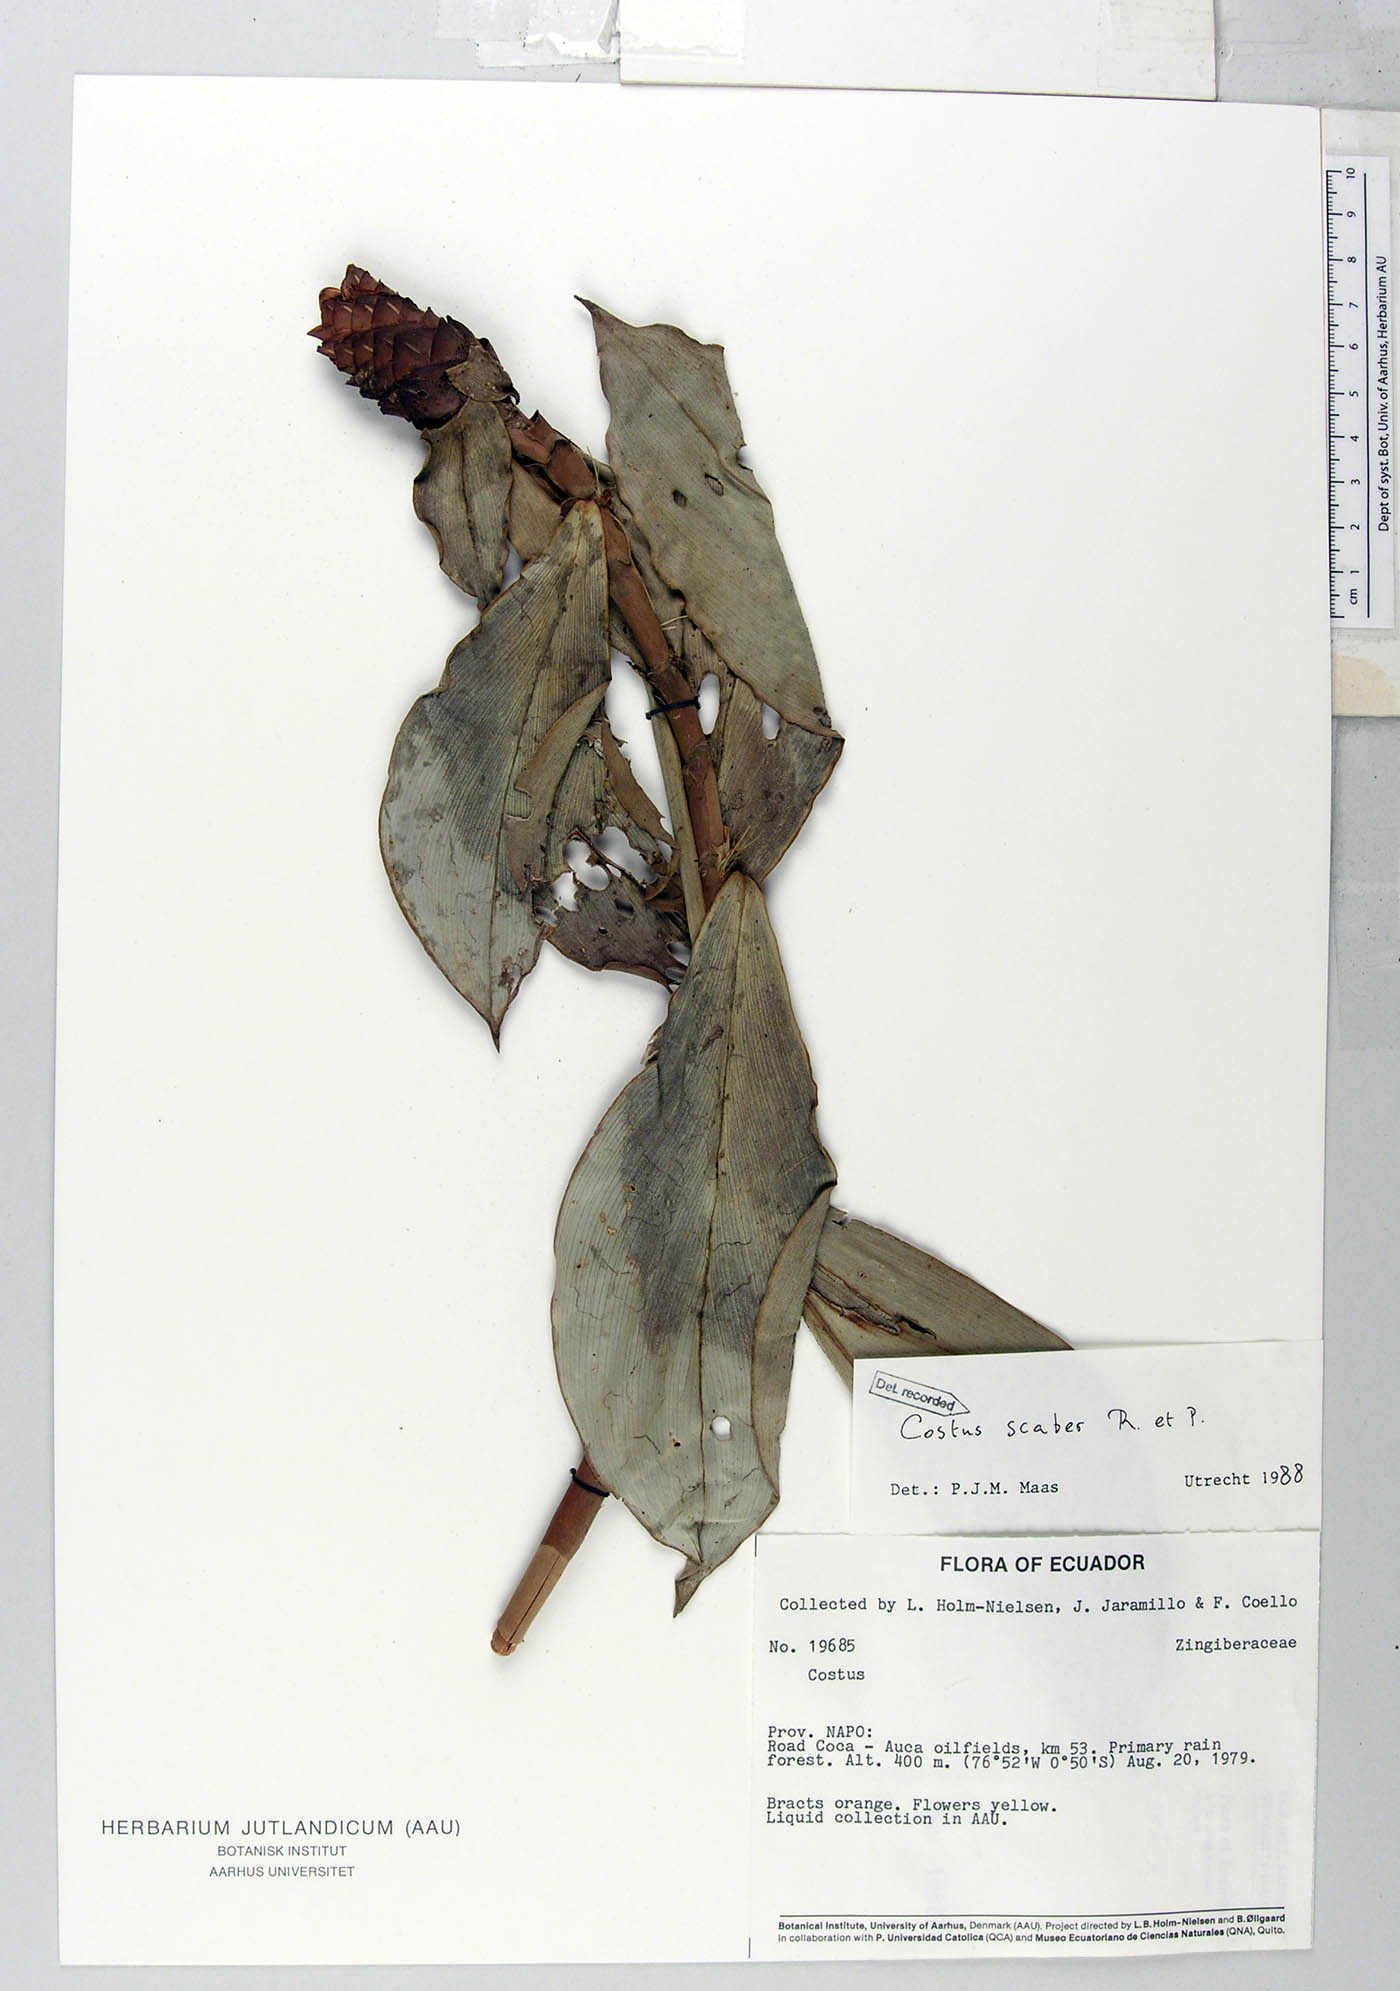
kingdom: Plantae
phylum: Tracheophyta
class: Liliopsida
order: Zingiberales
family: Costaceae
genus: Costus
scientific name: Costus scaber
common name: Spiral head ginger
